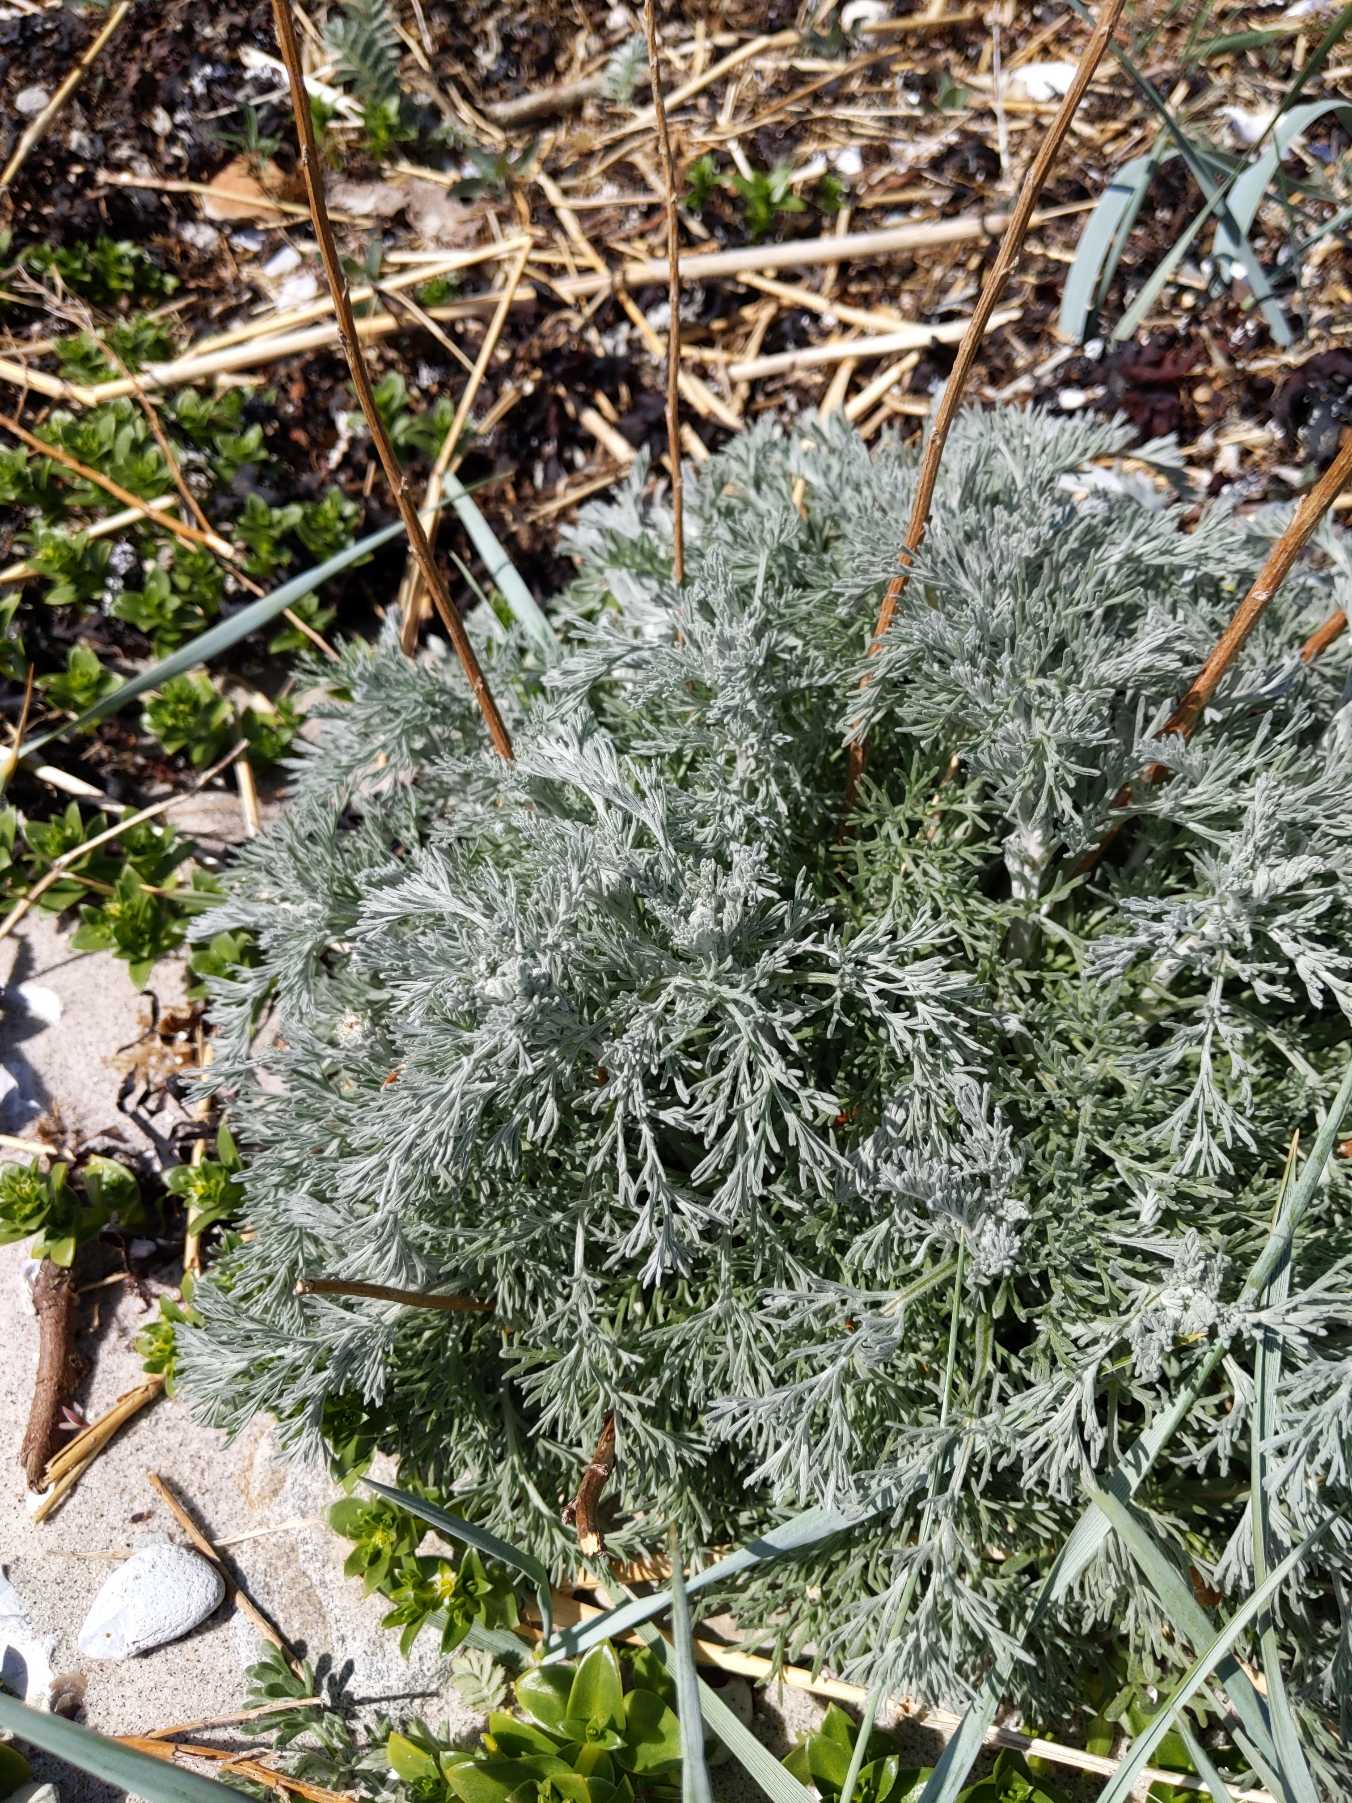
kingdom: Plantae
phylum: Tracheophyta
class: Magnoliopsida
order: Asterales
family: Asteraceae
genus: Artemisia
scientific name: Artemisia maritima
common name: Strandmalurt
